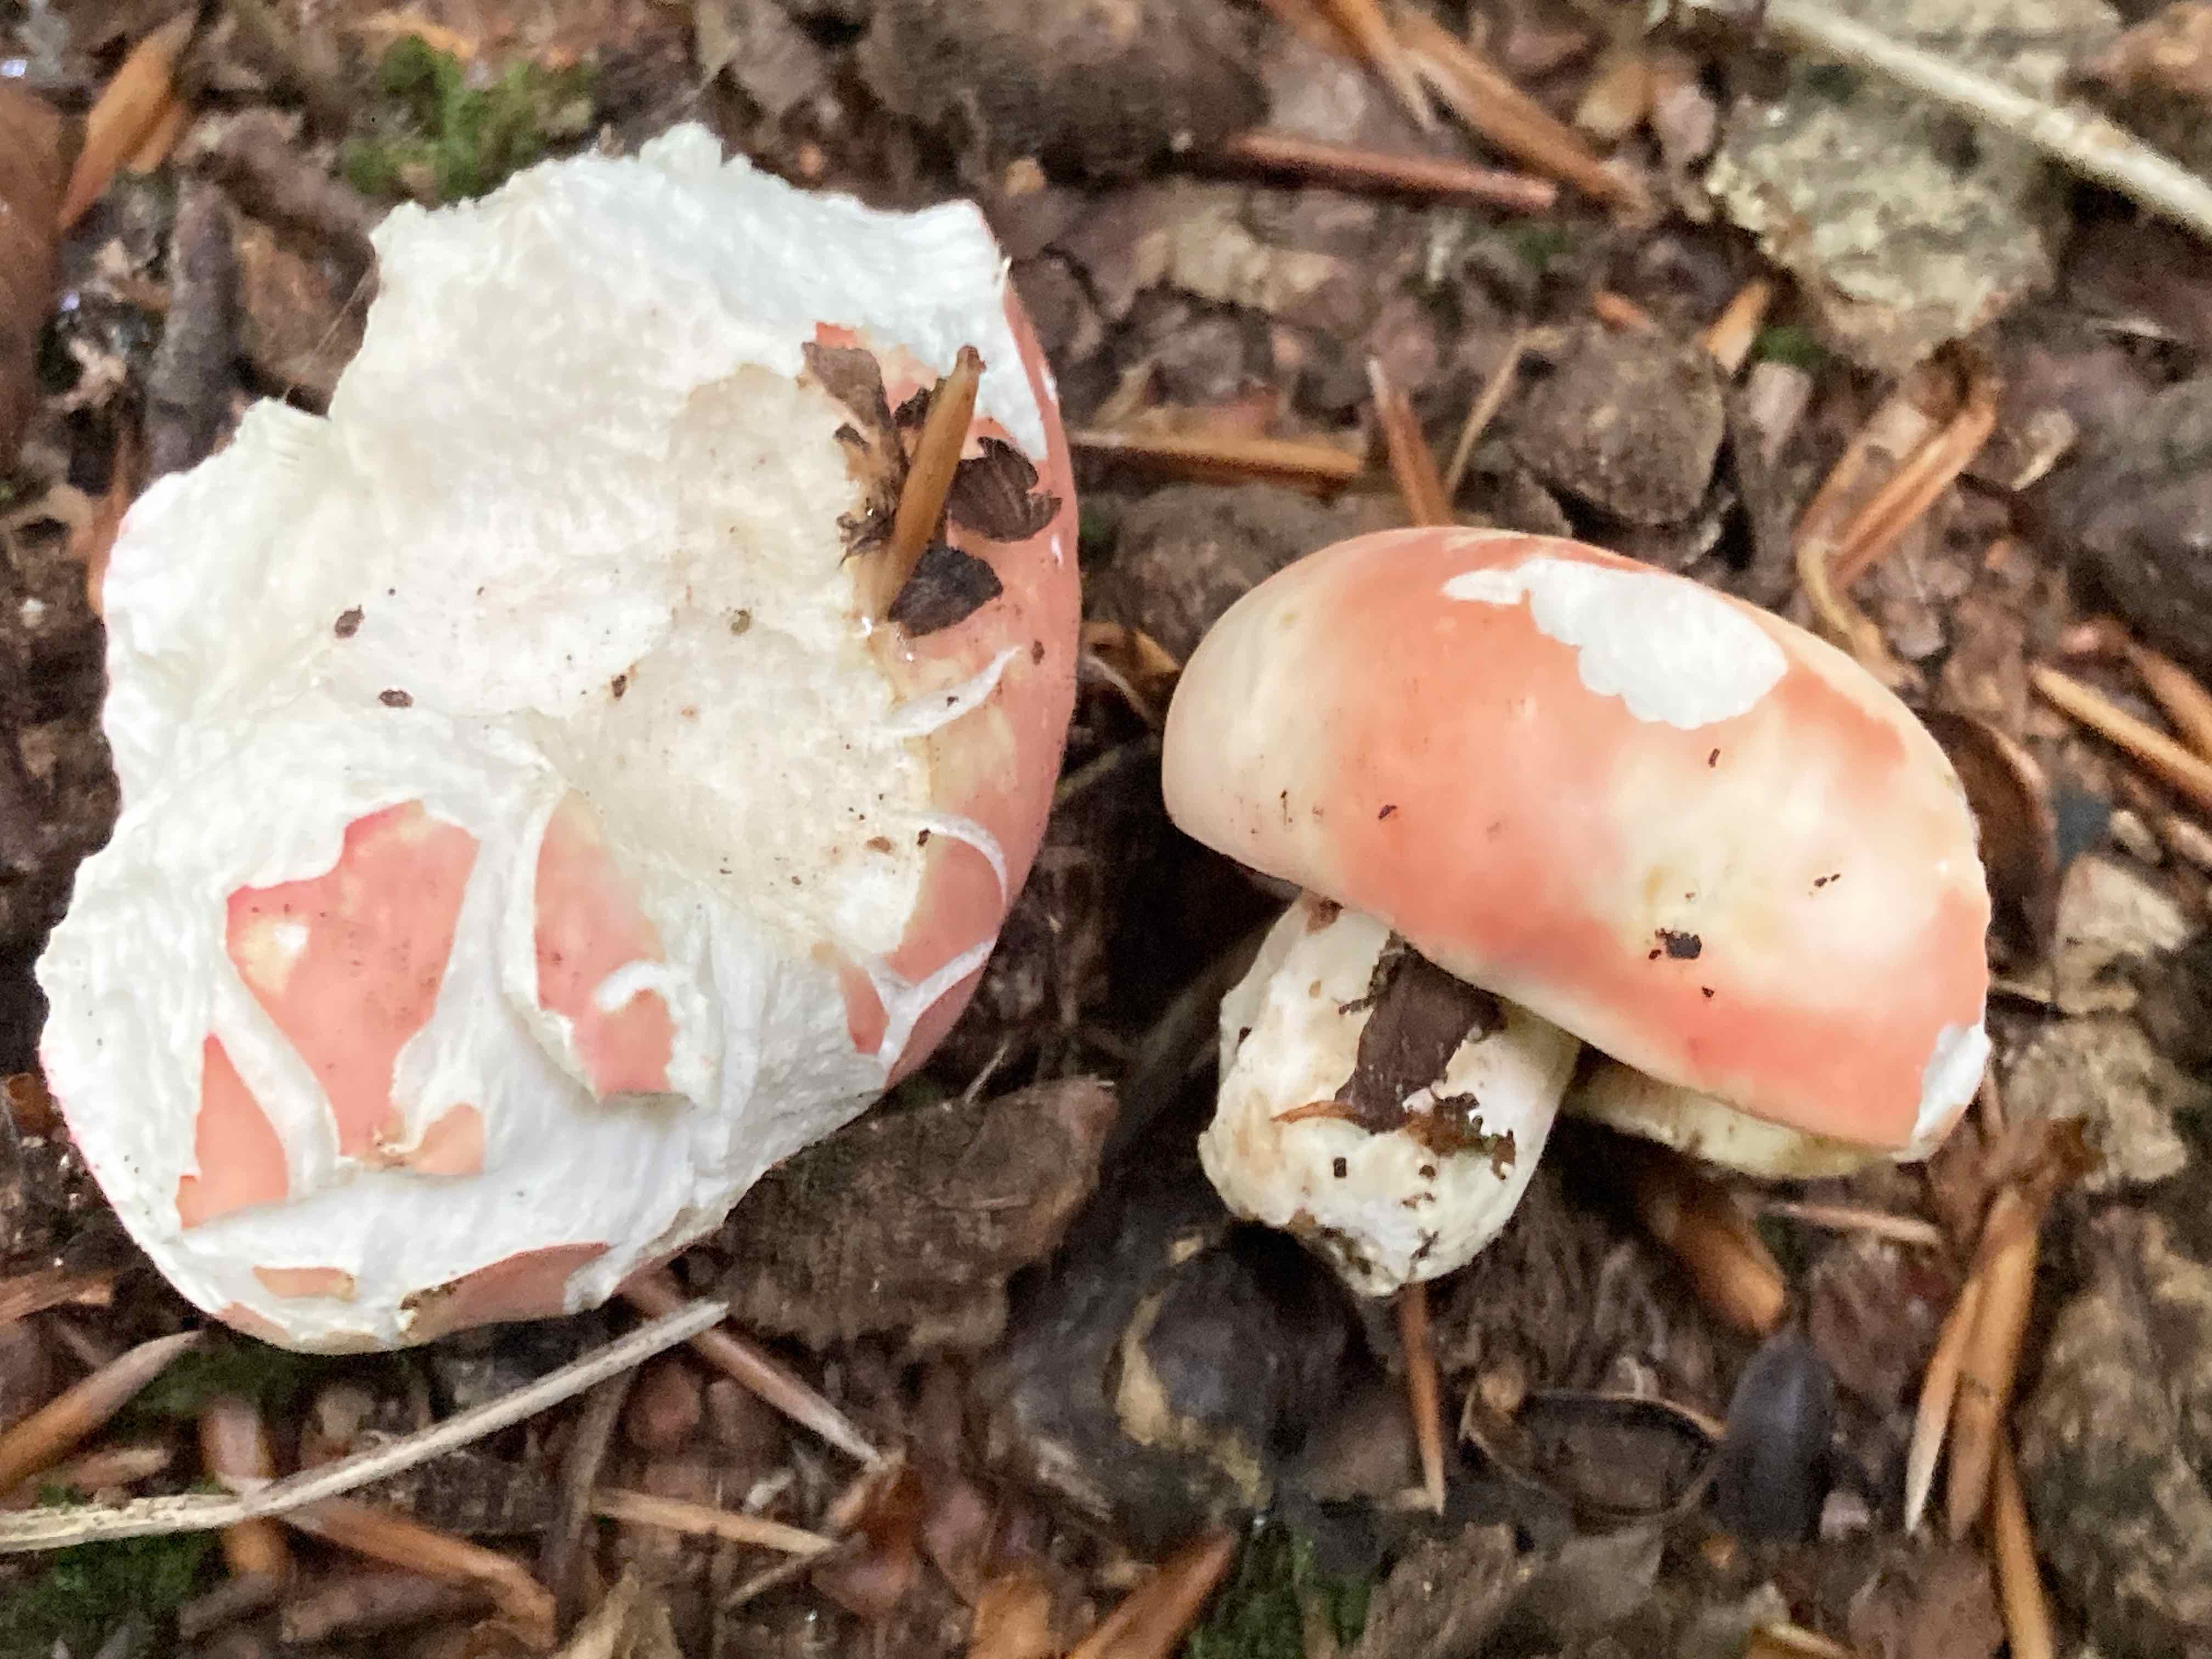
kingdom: Fungi
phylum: Basidiomycota
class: Agaricomycetes
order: Russulales
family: Russulaceae
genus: Russula
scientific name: Russula rosea
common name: fastkødet skørhat
